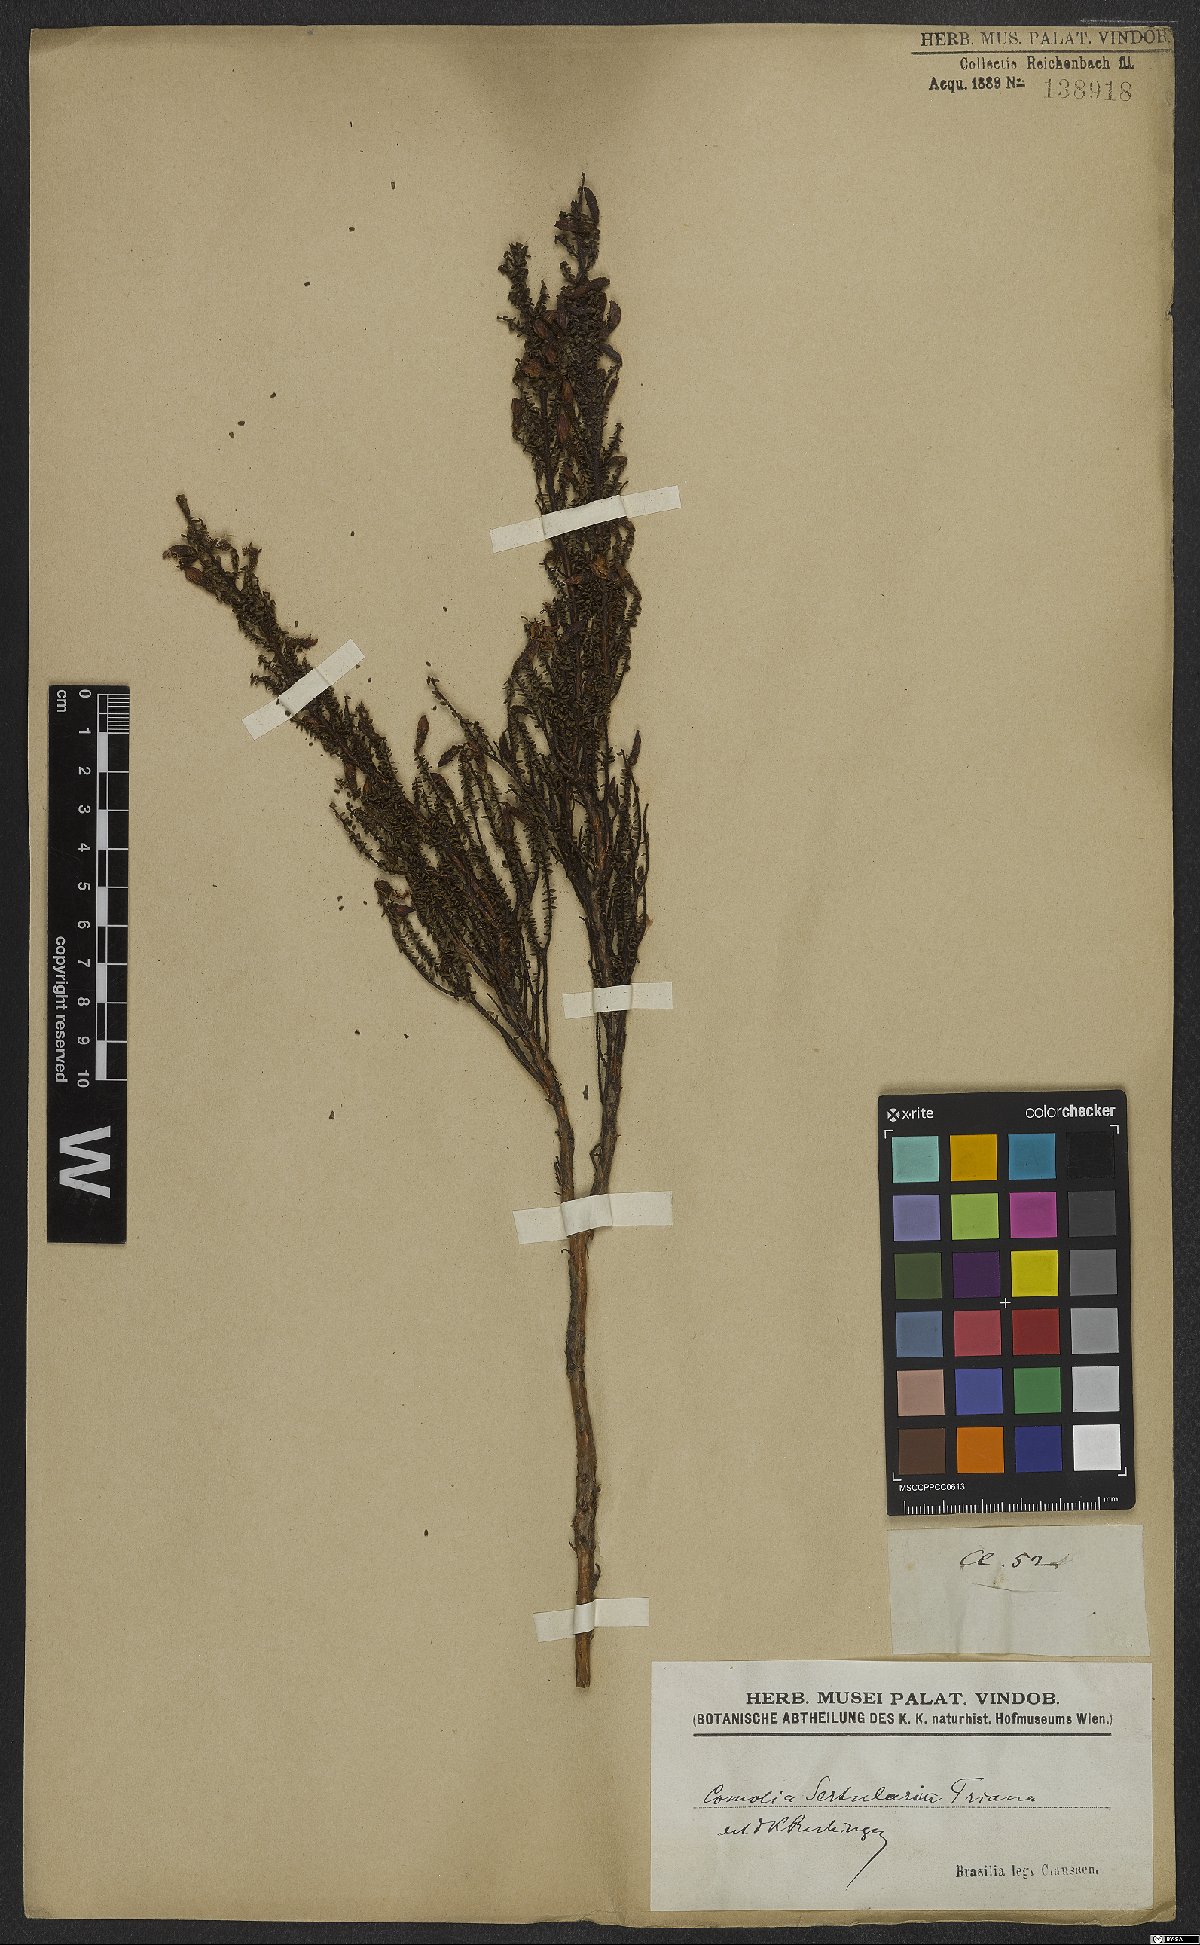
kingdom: Plantae
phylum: Tracheophyta
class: Magnoliopsida
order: Myrtales
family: Melastomataceae
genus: Fritzschia
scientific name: Fritzschia sertularia
